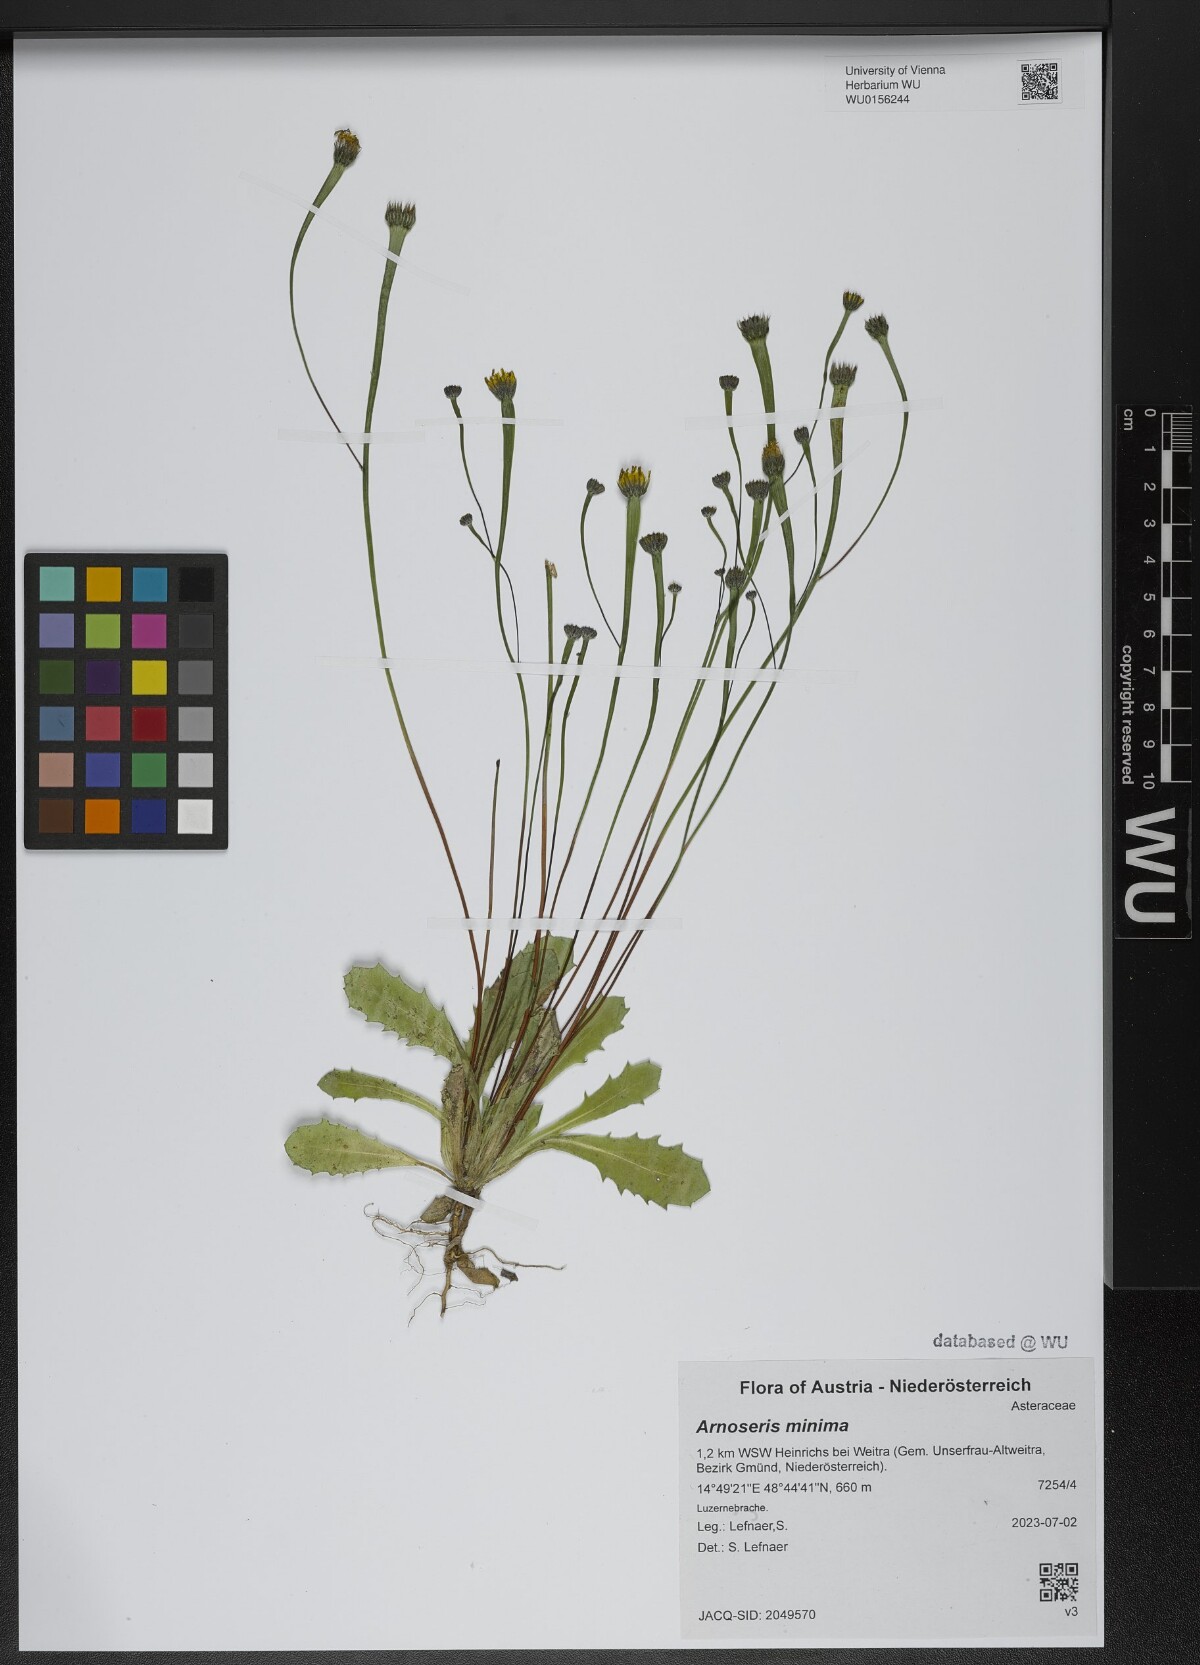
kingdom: Plantae
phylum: Tracheophyta
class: Magnoliopsida
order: Asterales
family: Asteraceae
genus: Arnoseris
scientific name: Arnoseris minima
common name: Lamb's succory
